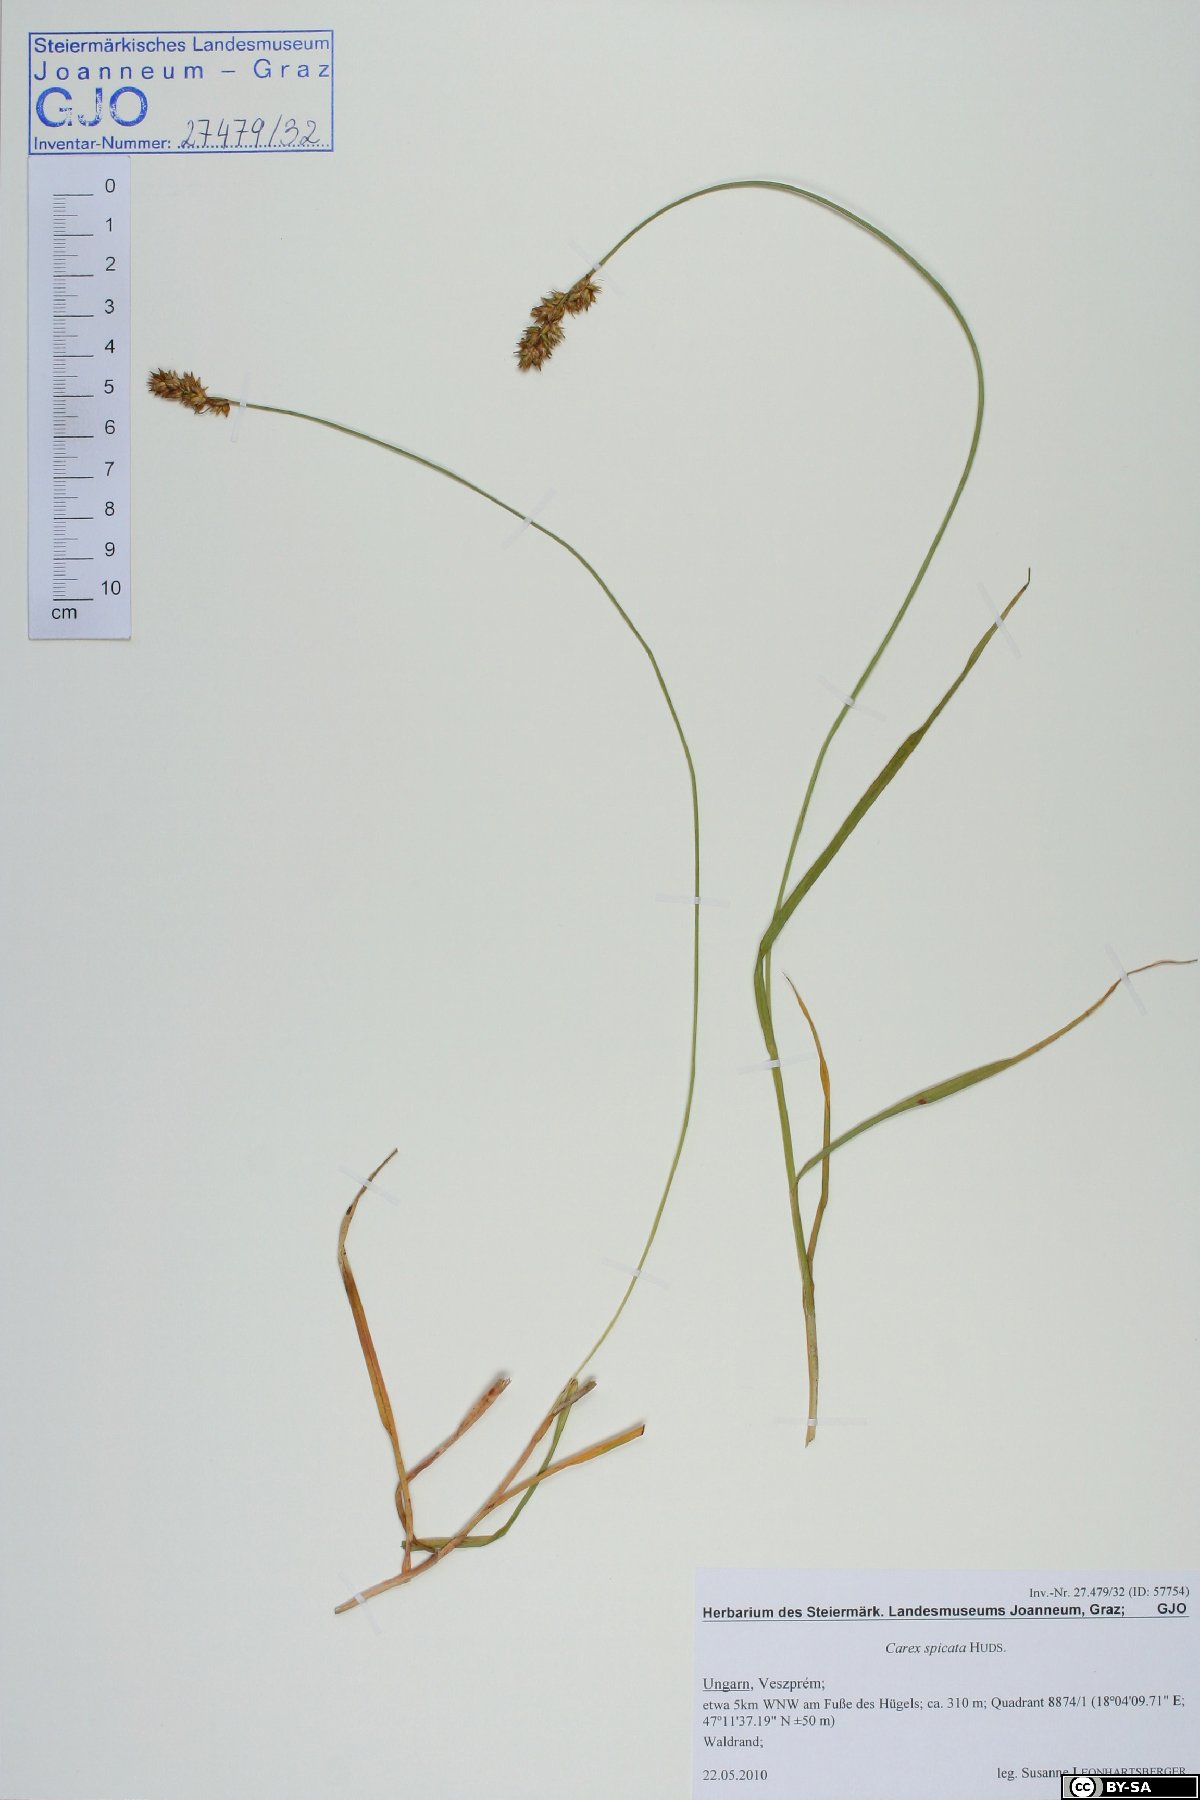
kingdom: Plantae
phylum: Tracheophyta
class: Liliopsida
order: Poales
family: Cyperaceae
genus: Carex
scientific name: Carex spicata
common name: Spiked sedge
